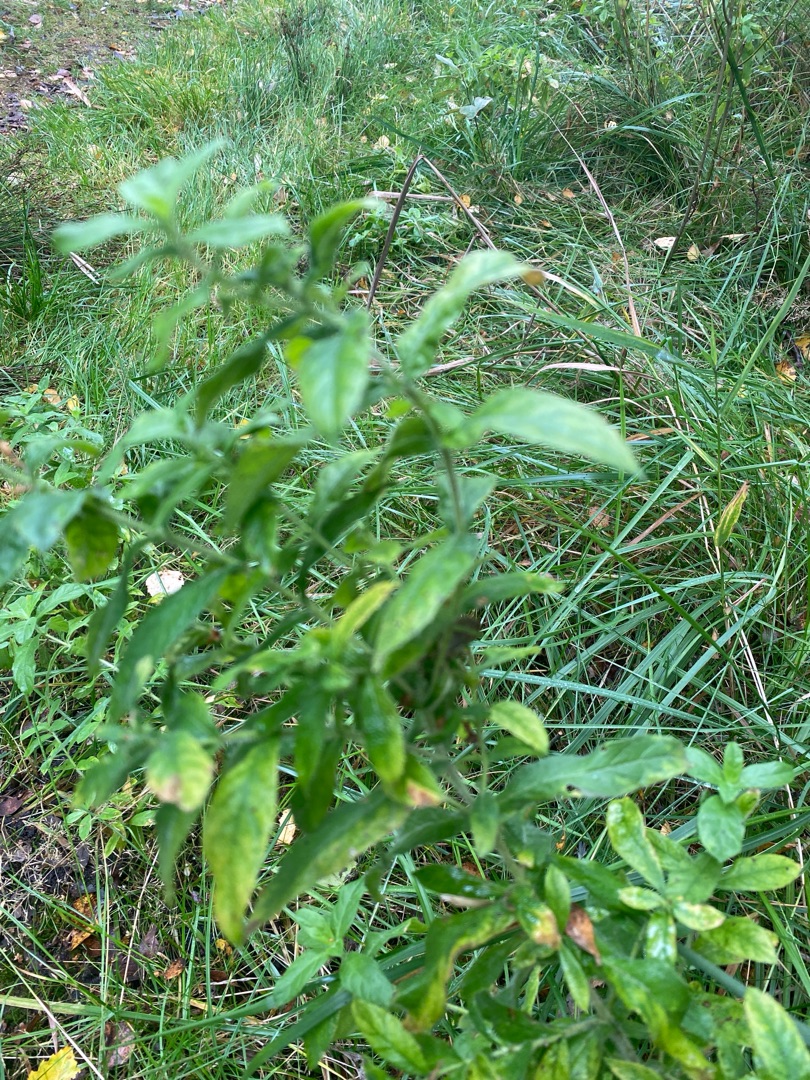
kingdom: Plantae
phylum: Tracheophyta
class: Magnoliopsida
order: Myrtales
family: Onagraceae
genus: Epilobium
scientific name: Epilobium hirsutum
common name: Lådden dueurt
